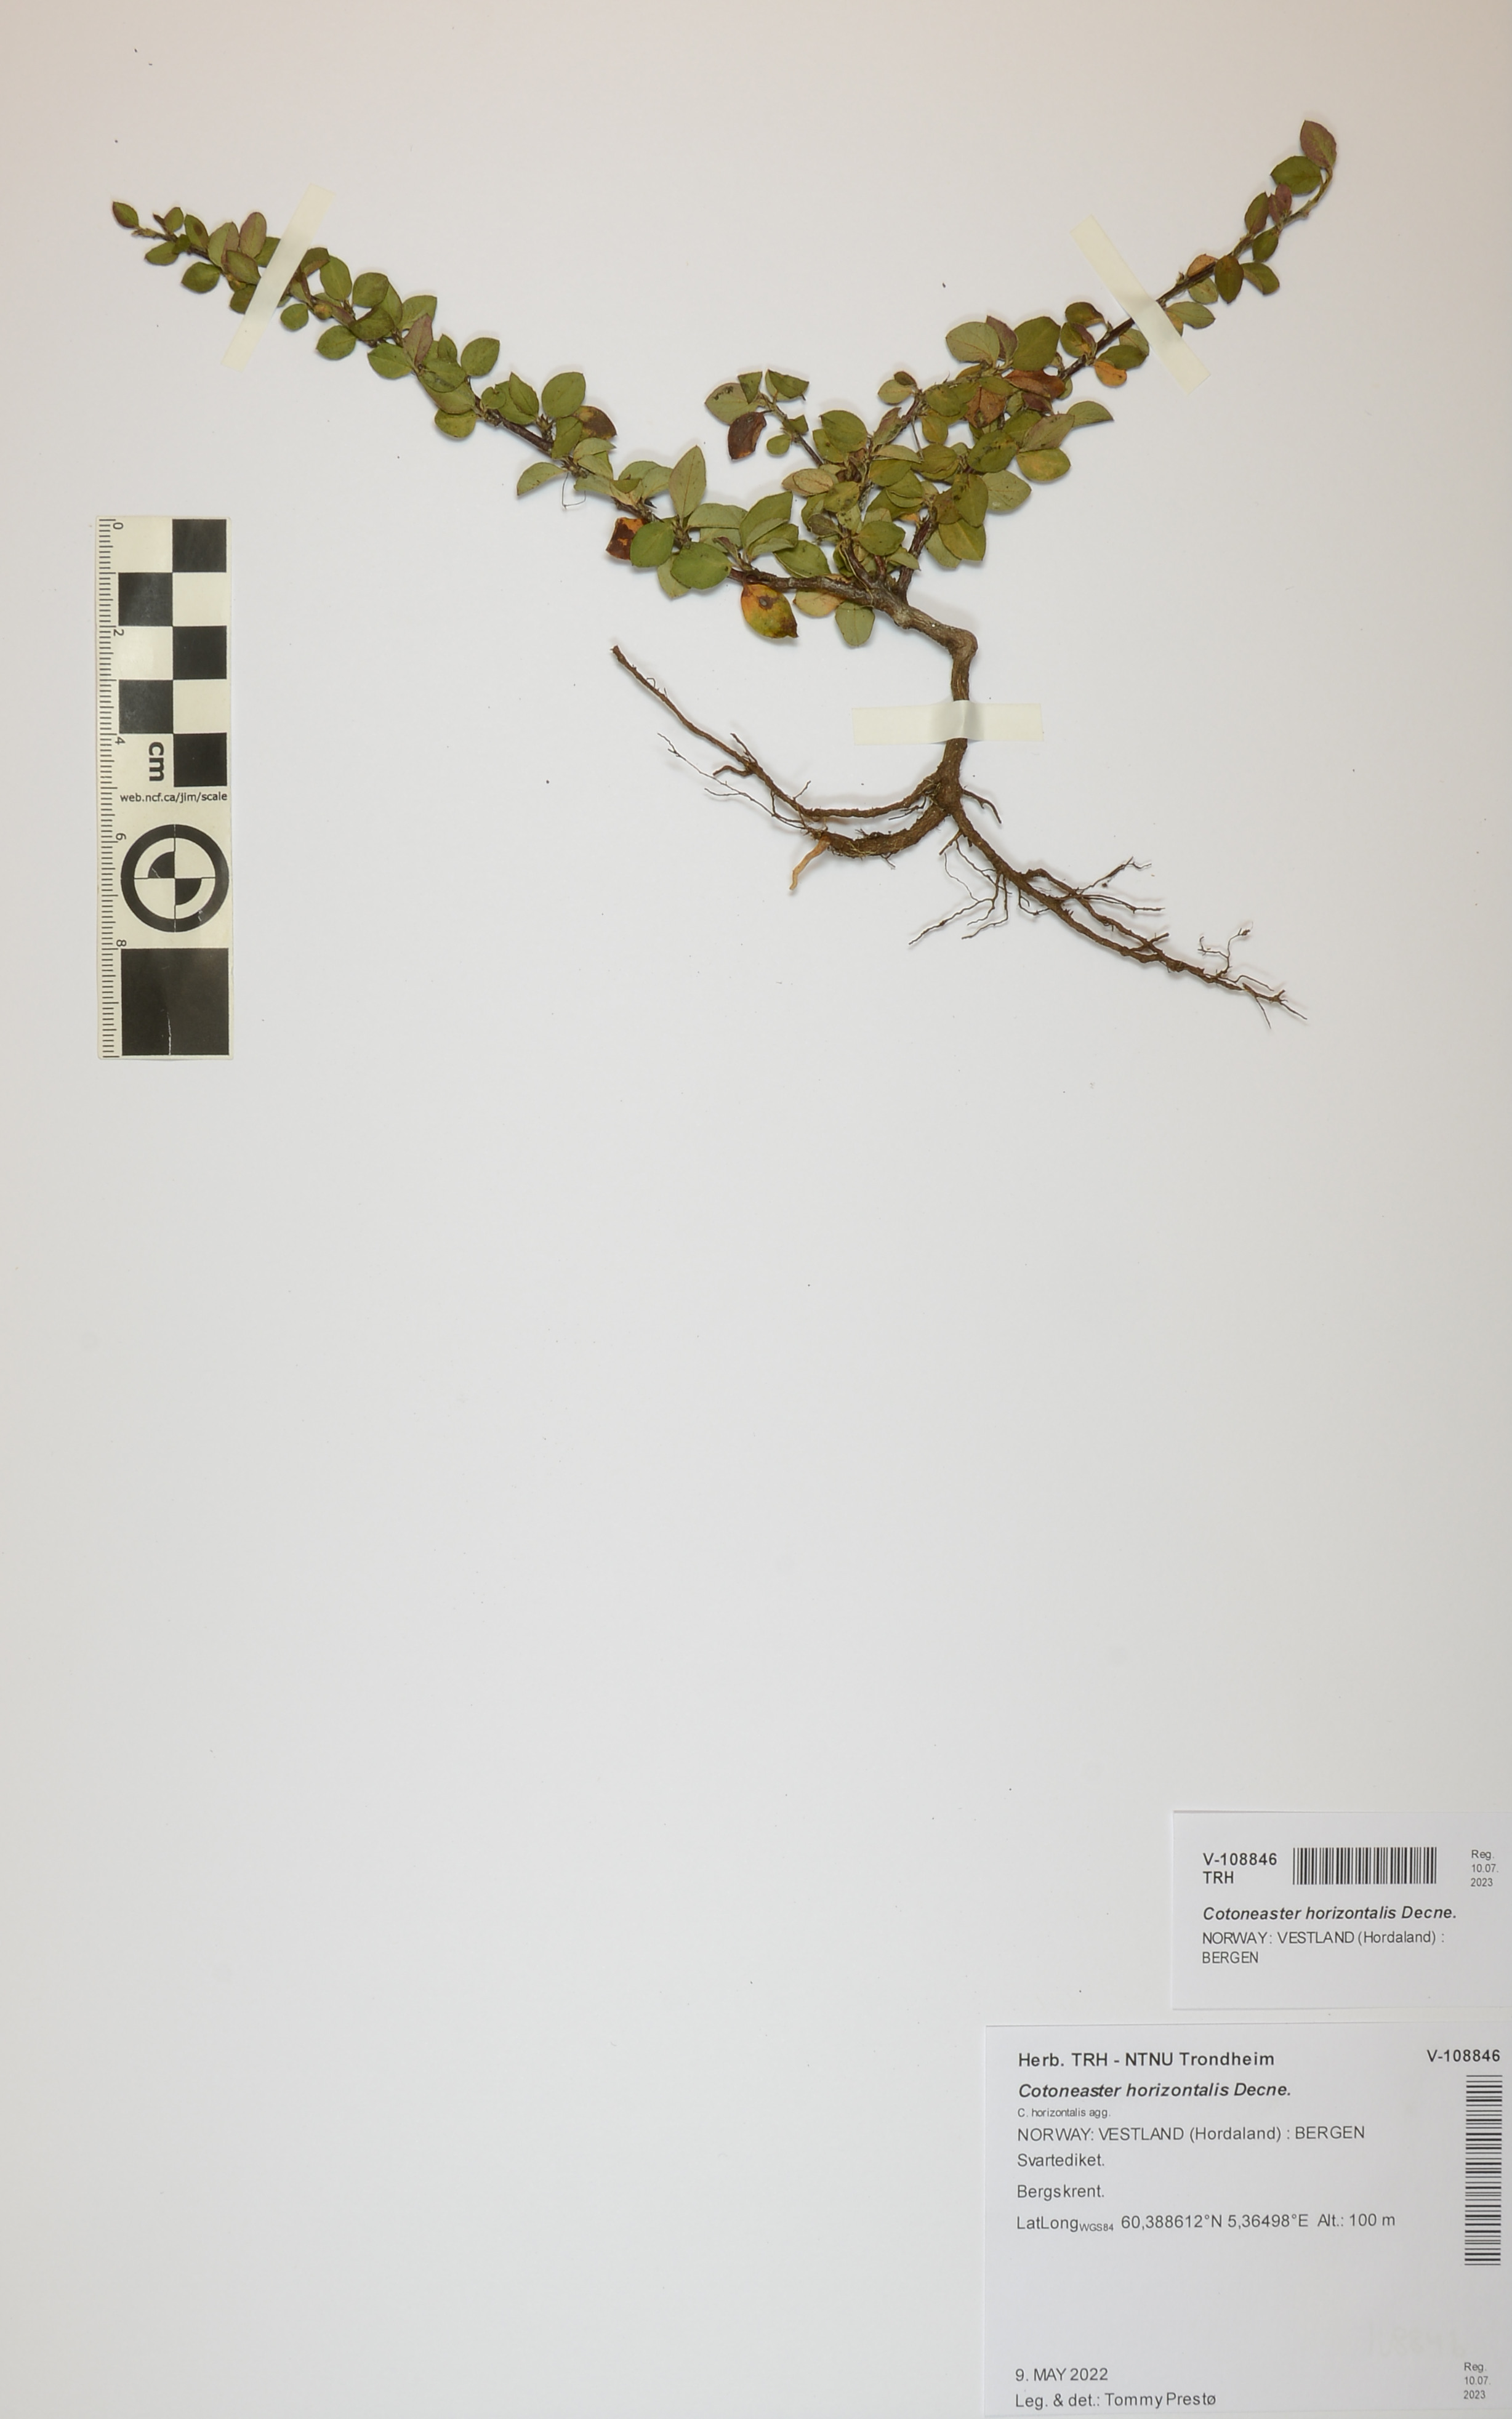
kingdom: Plantae
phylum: Tracheophyta
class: Magnoliopsida
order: Rosales
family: Rosaceae
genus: Cotoneaster
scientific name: Cotoneaster horizontalis
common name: Wall cotoneaster
